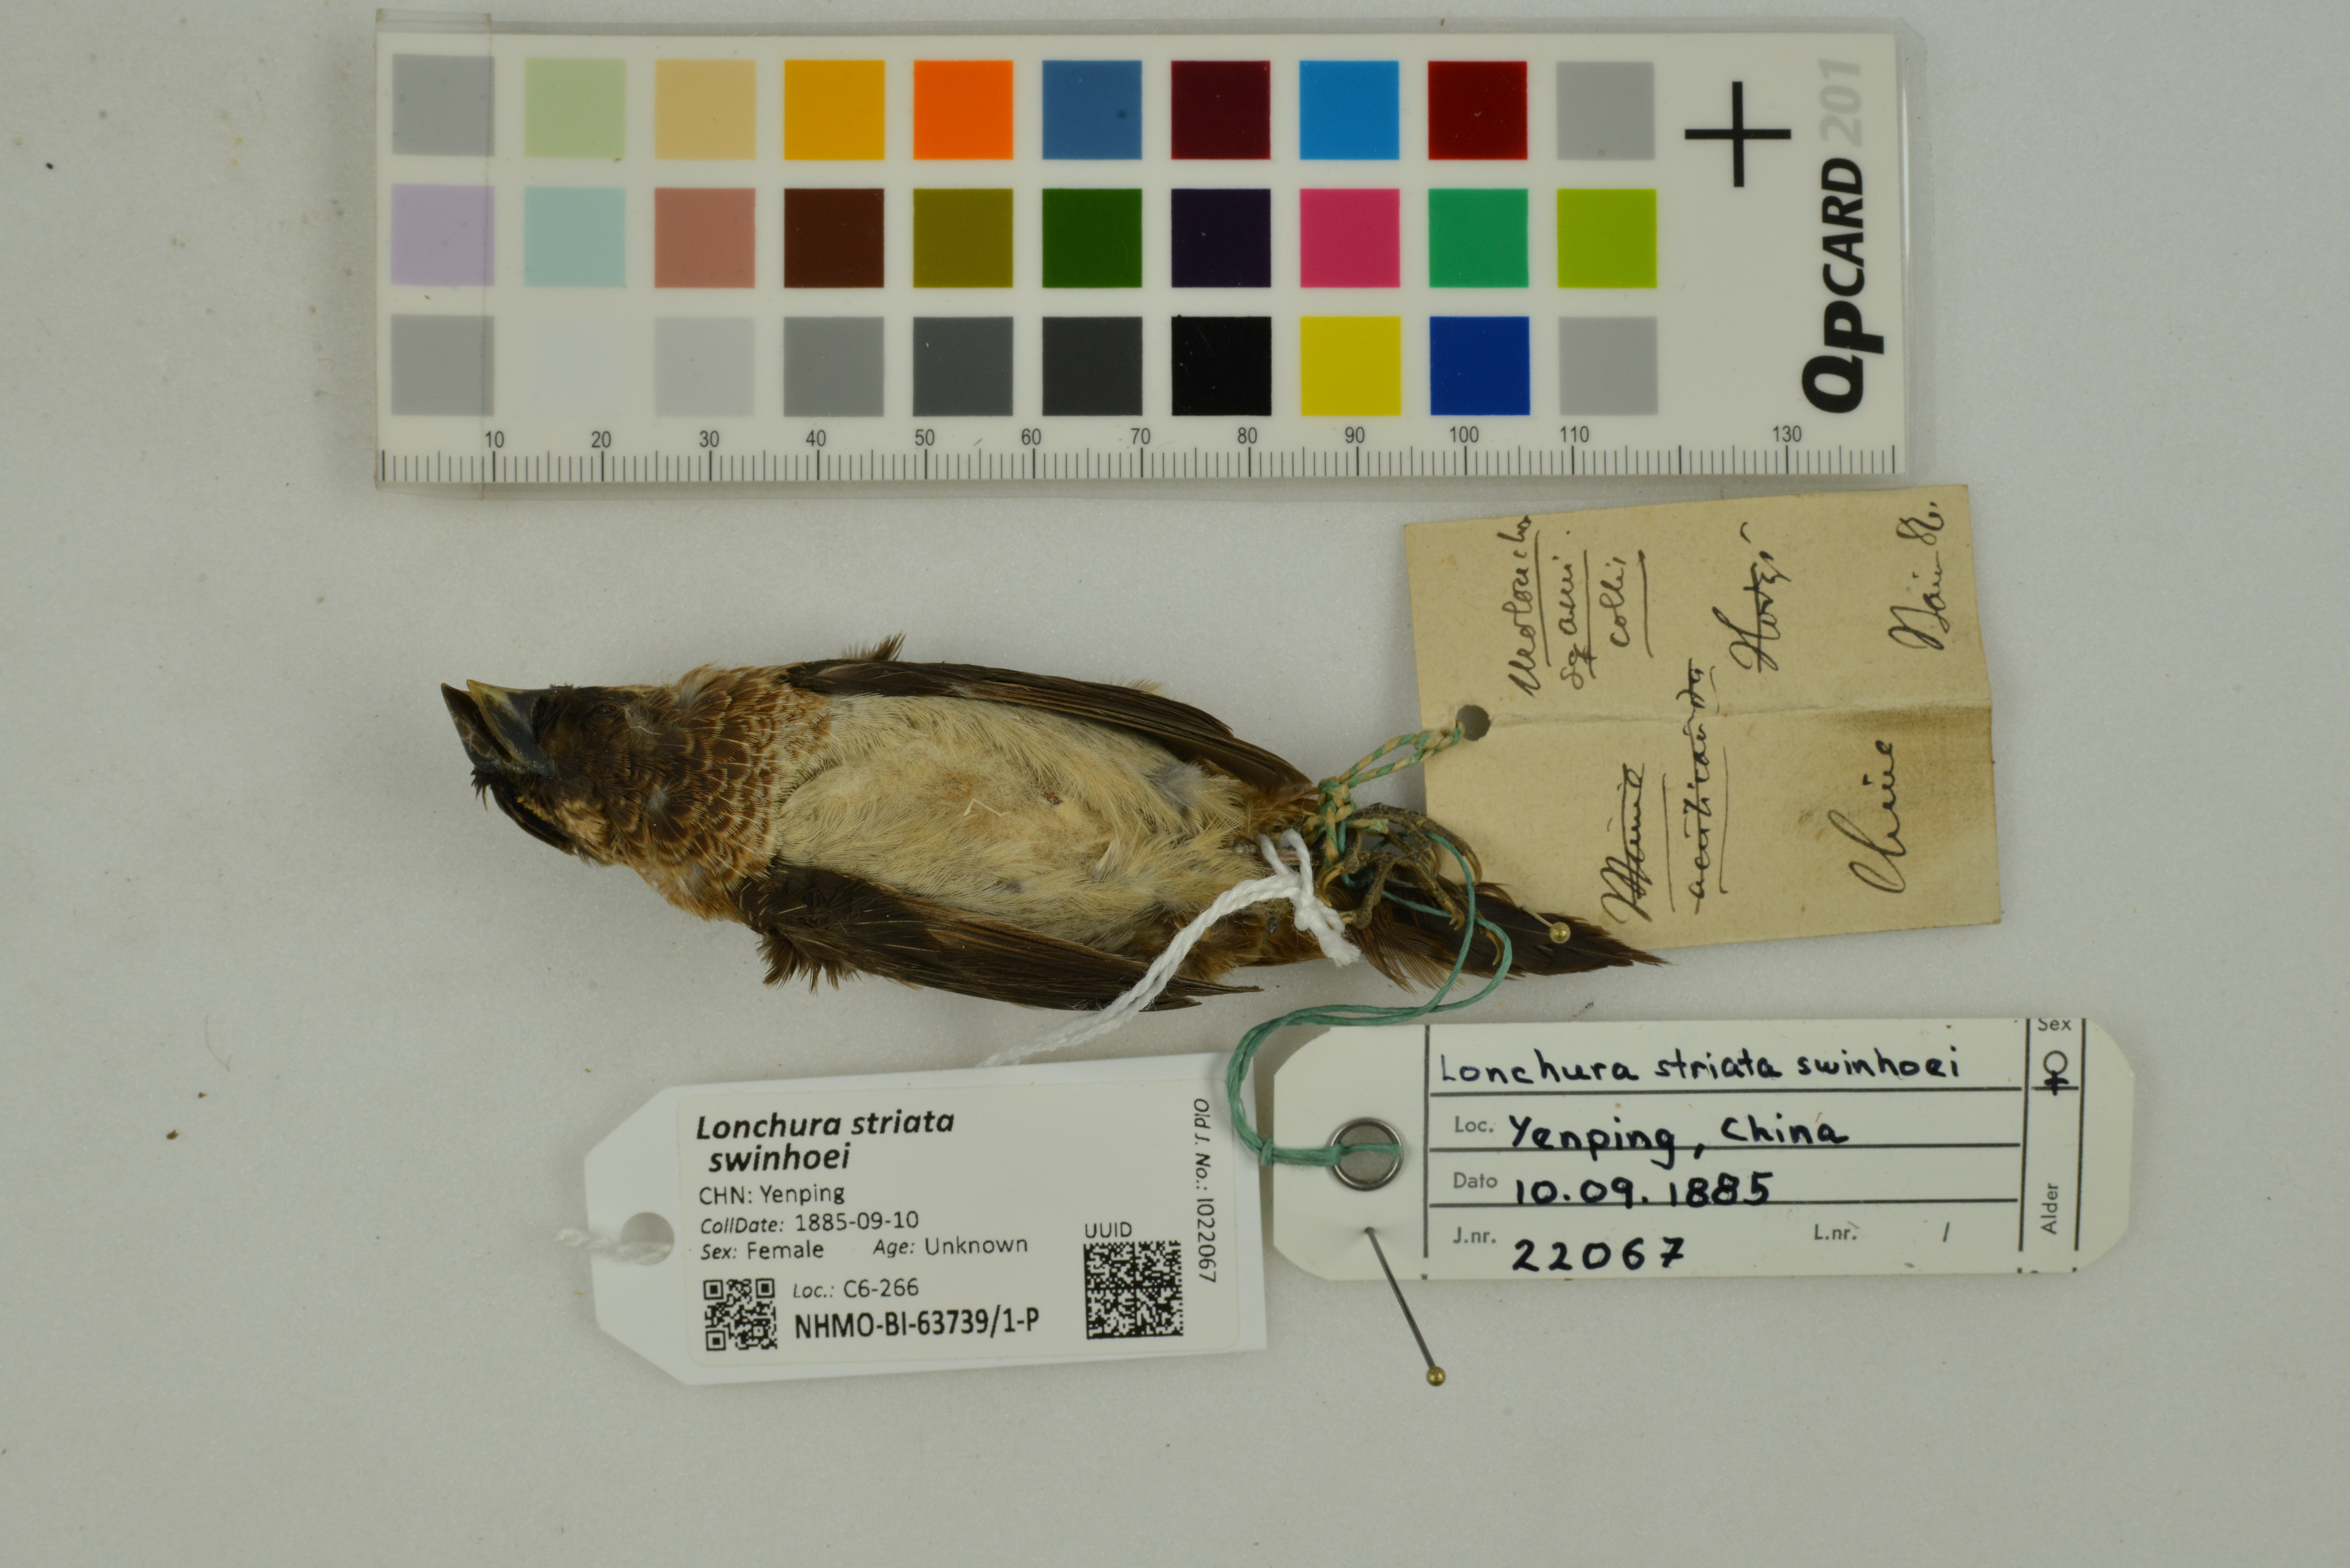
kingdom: Animalia
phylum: Chordata
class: Aves
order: Passeriformes
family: Estrildidae
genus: Lonchura
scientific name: Lonchura striata
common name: White-rumped munia
